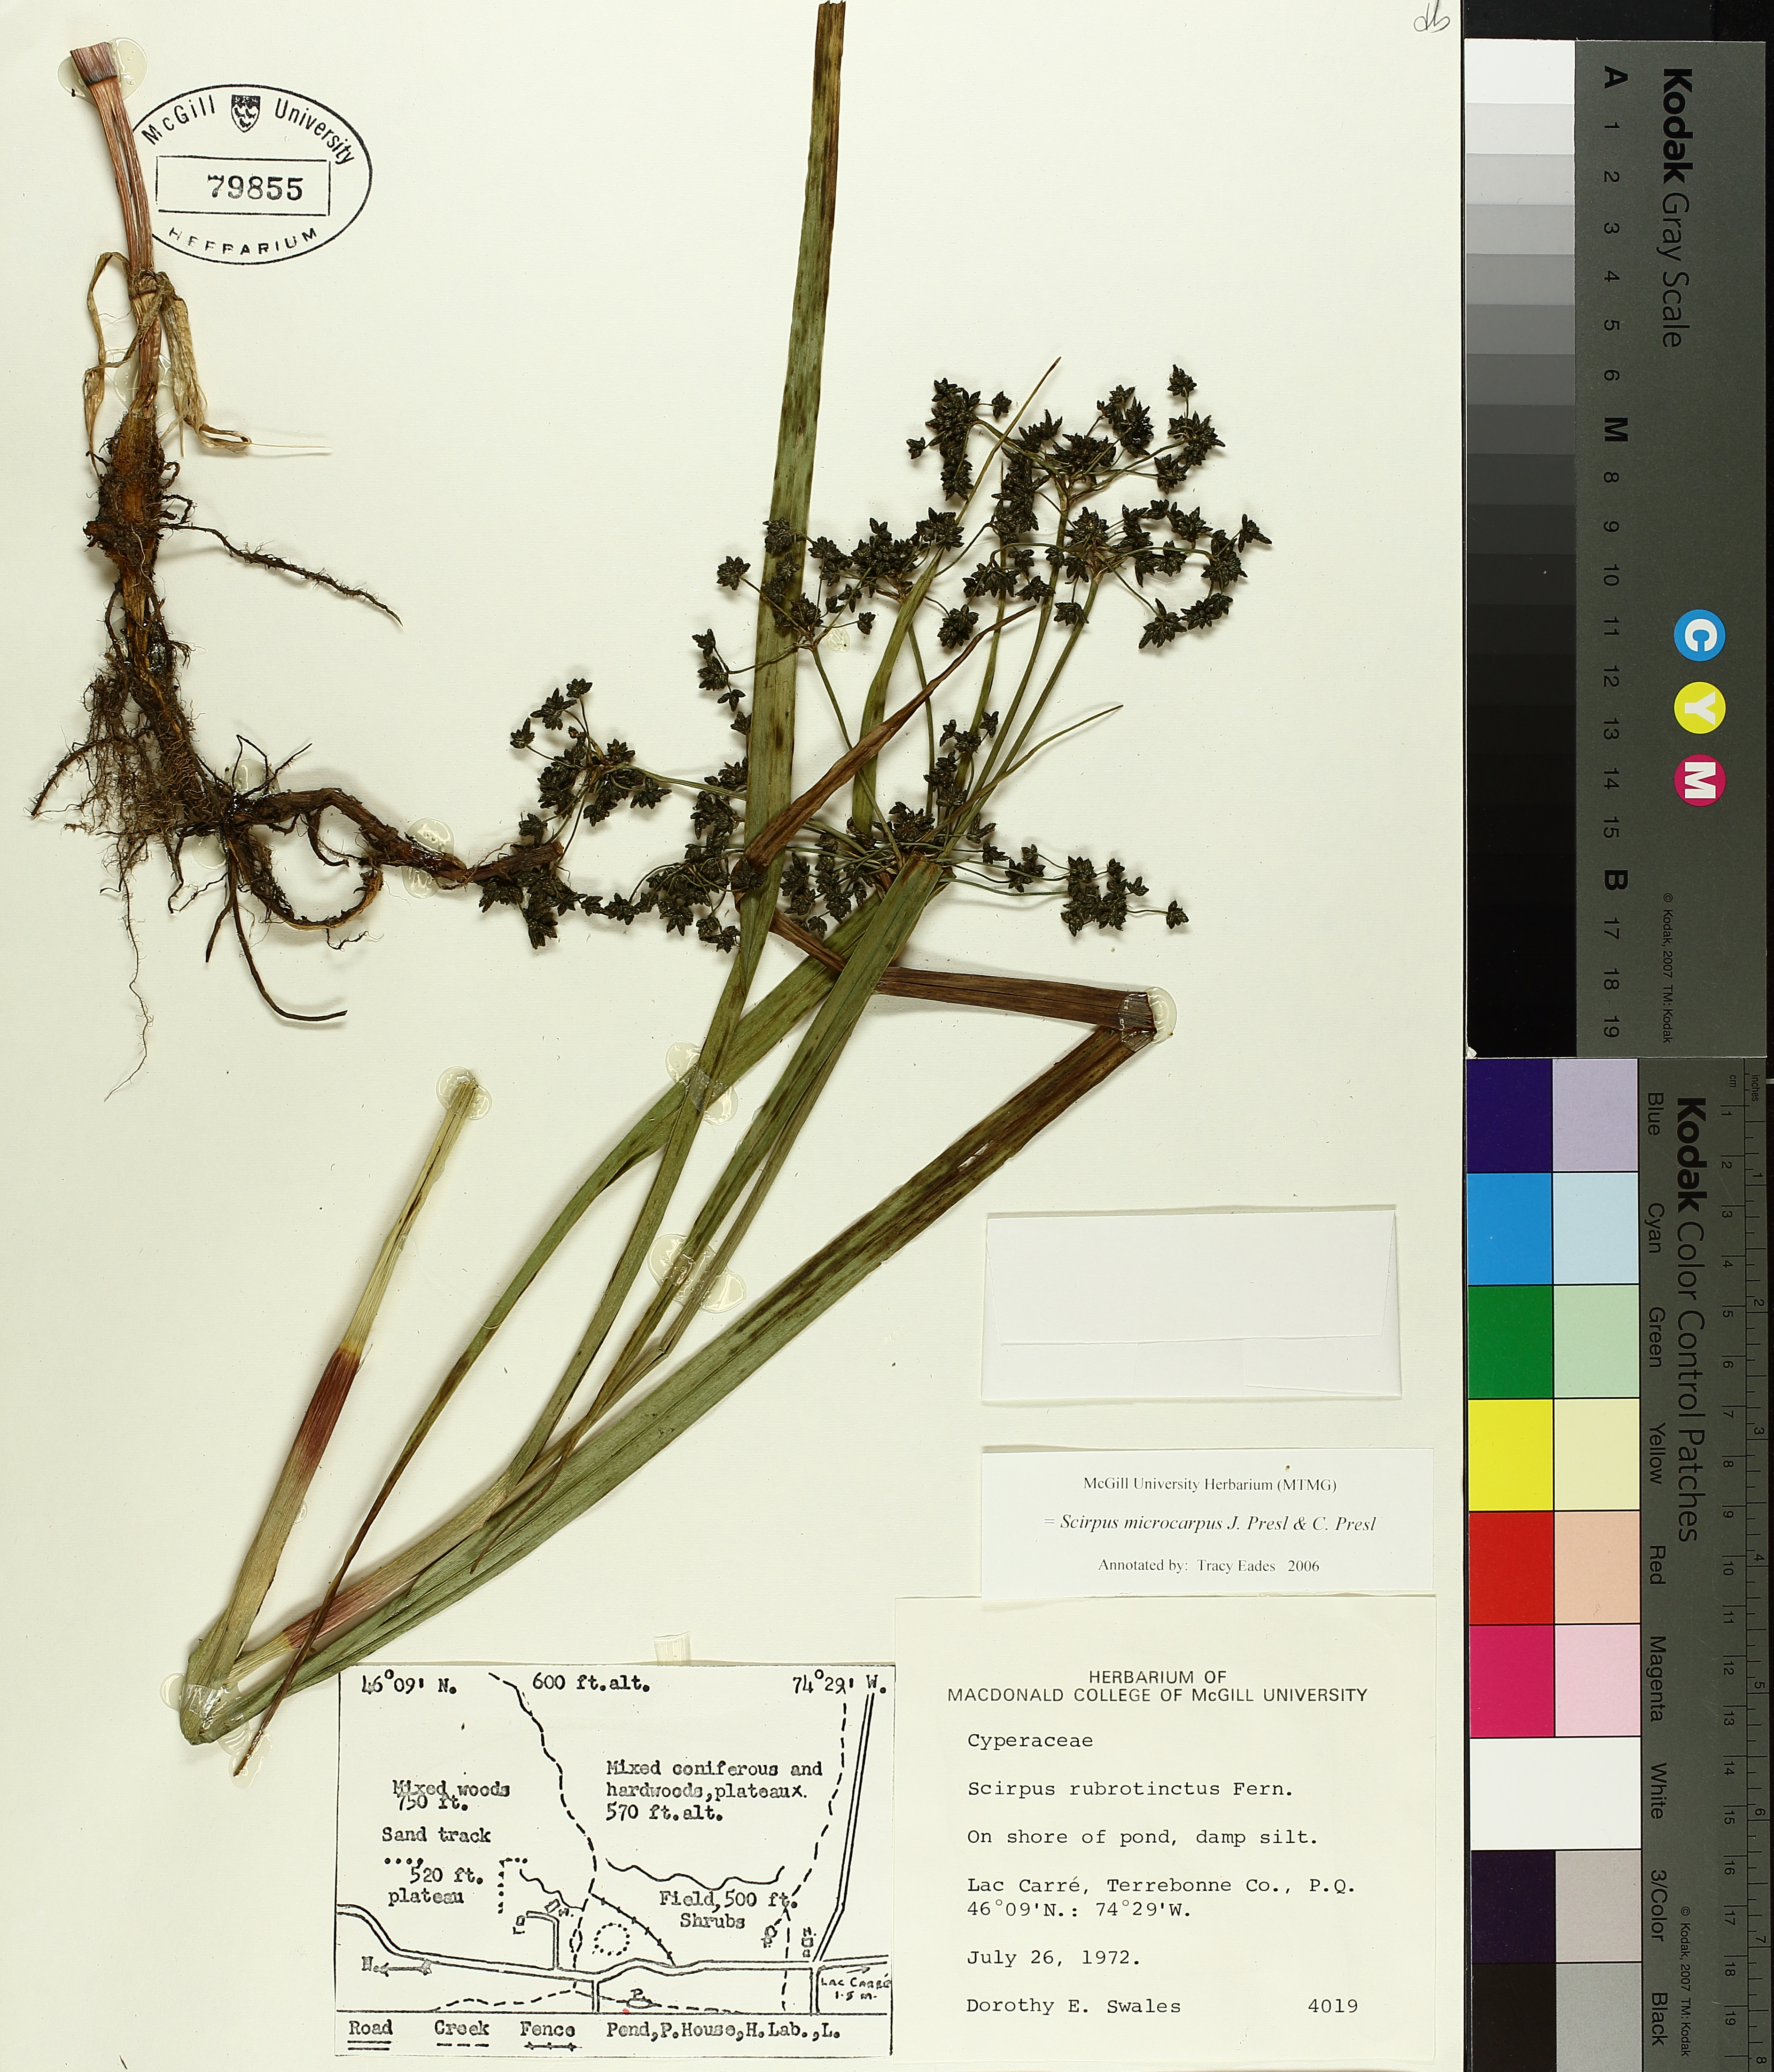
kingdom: Plantae
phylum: Tracheophyta
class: Liliopsida
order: Poales
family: Cyperaceae
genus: Scirpus
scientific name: Scirpus microcarpus
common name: Panicled bulrush
